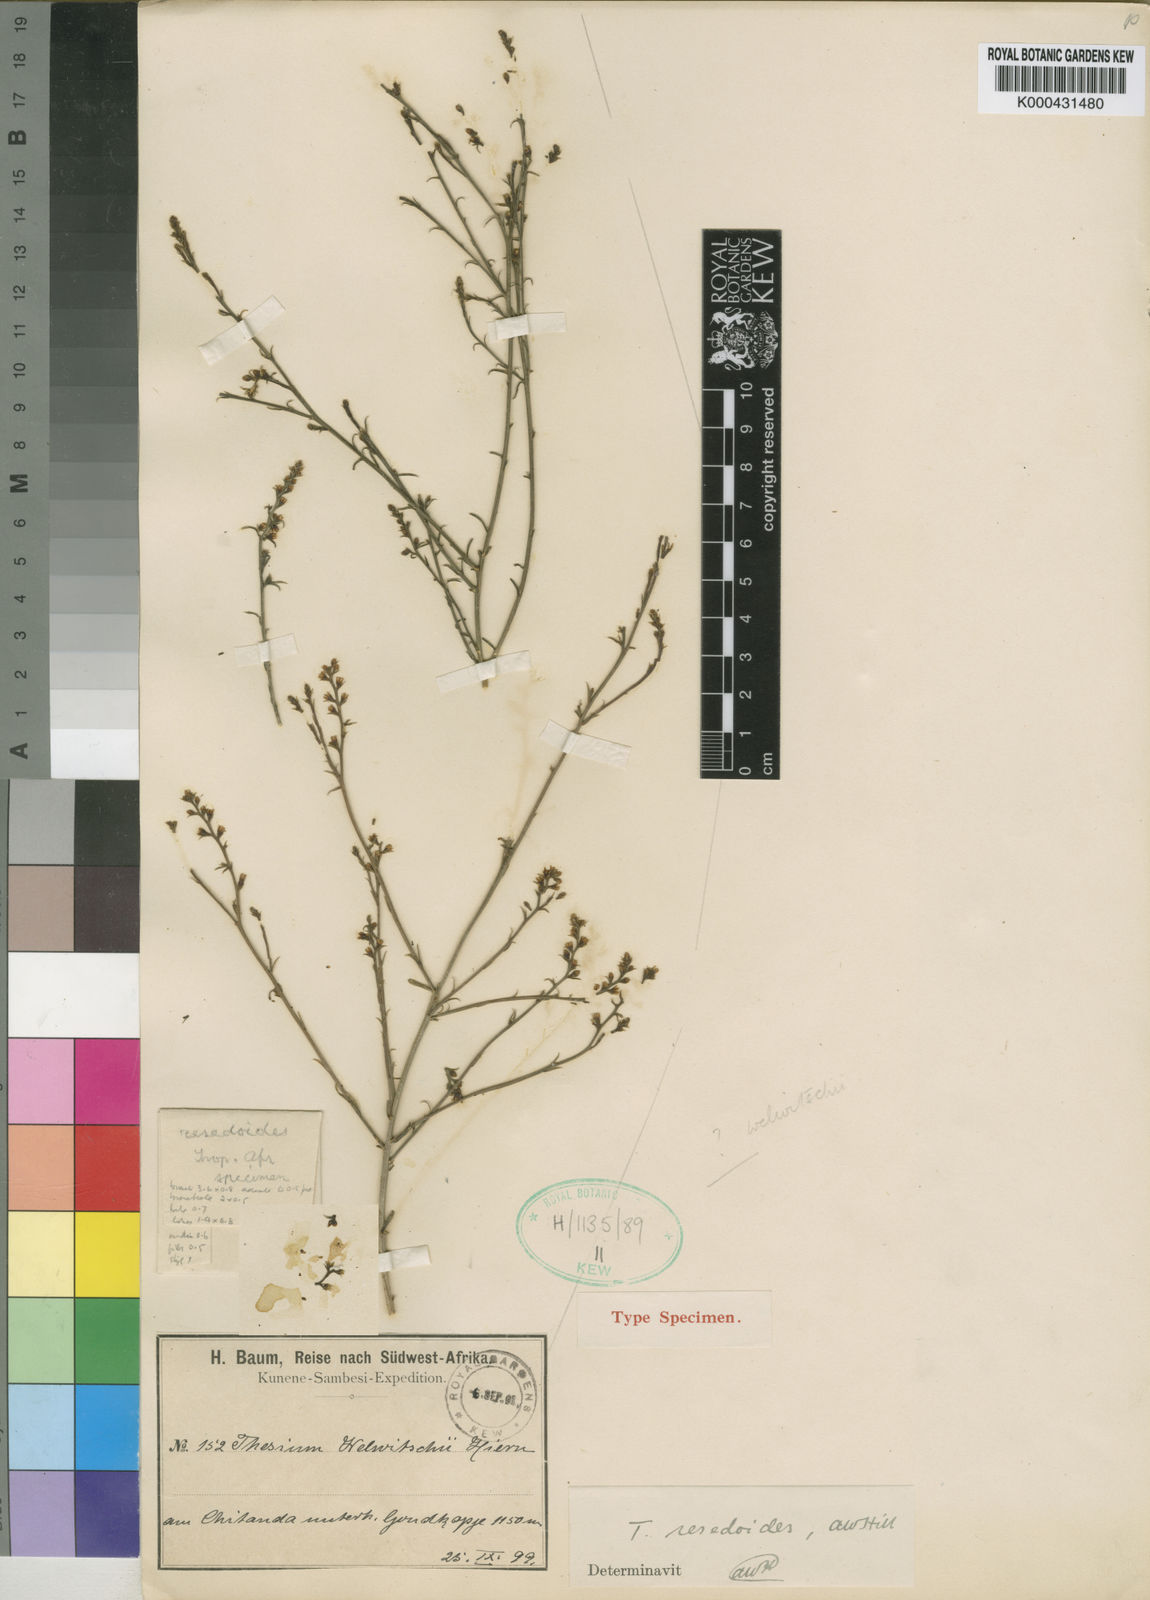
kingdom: Plantae
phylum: Tracheophyta
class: Magnoliopsida
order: Santalales
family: Thesiaceae
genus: Thesium
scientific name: Thesium resedoides
